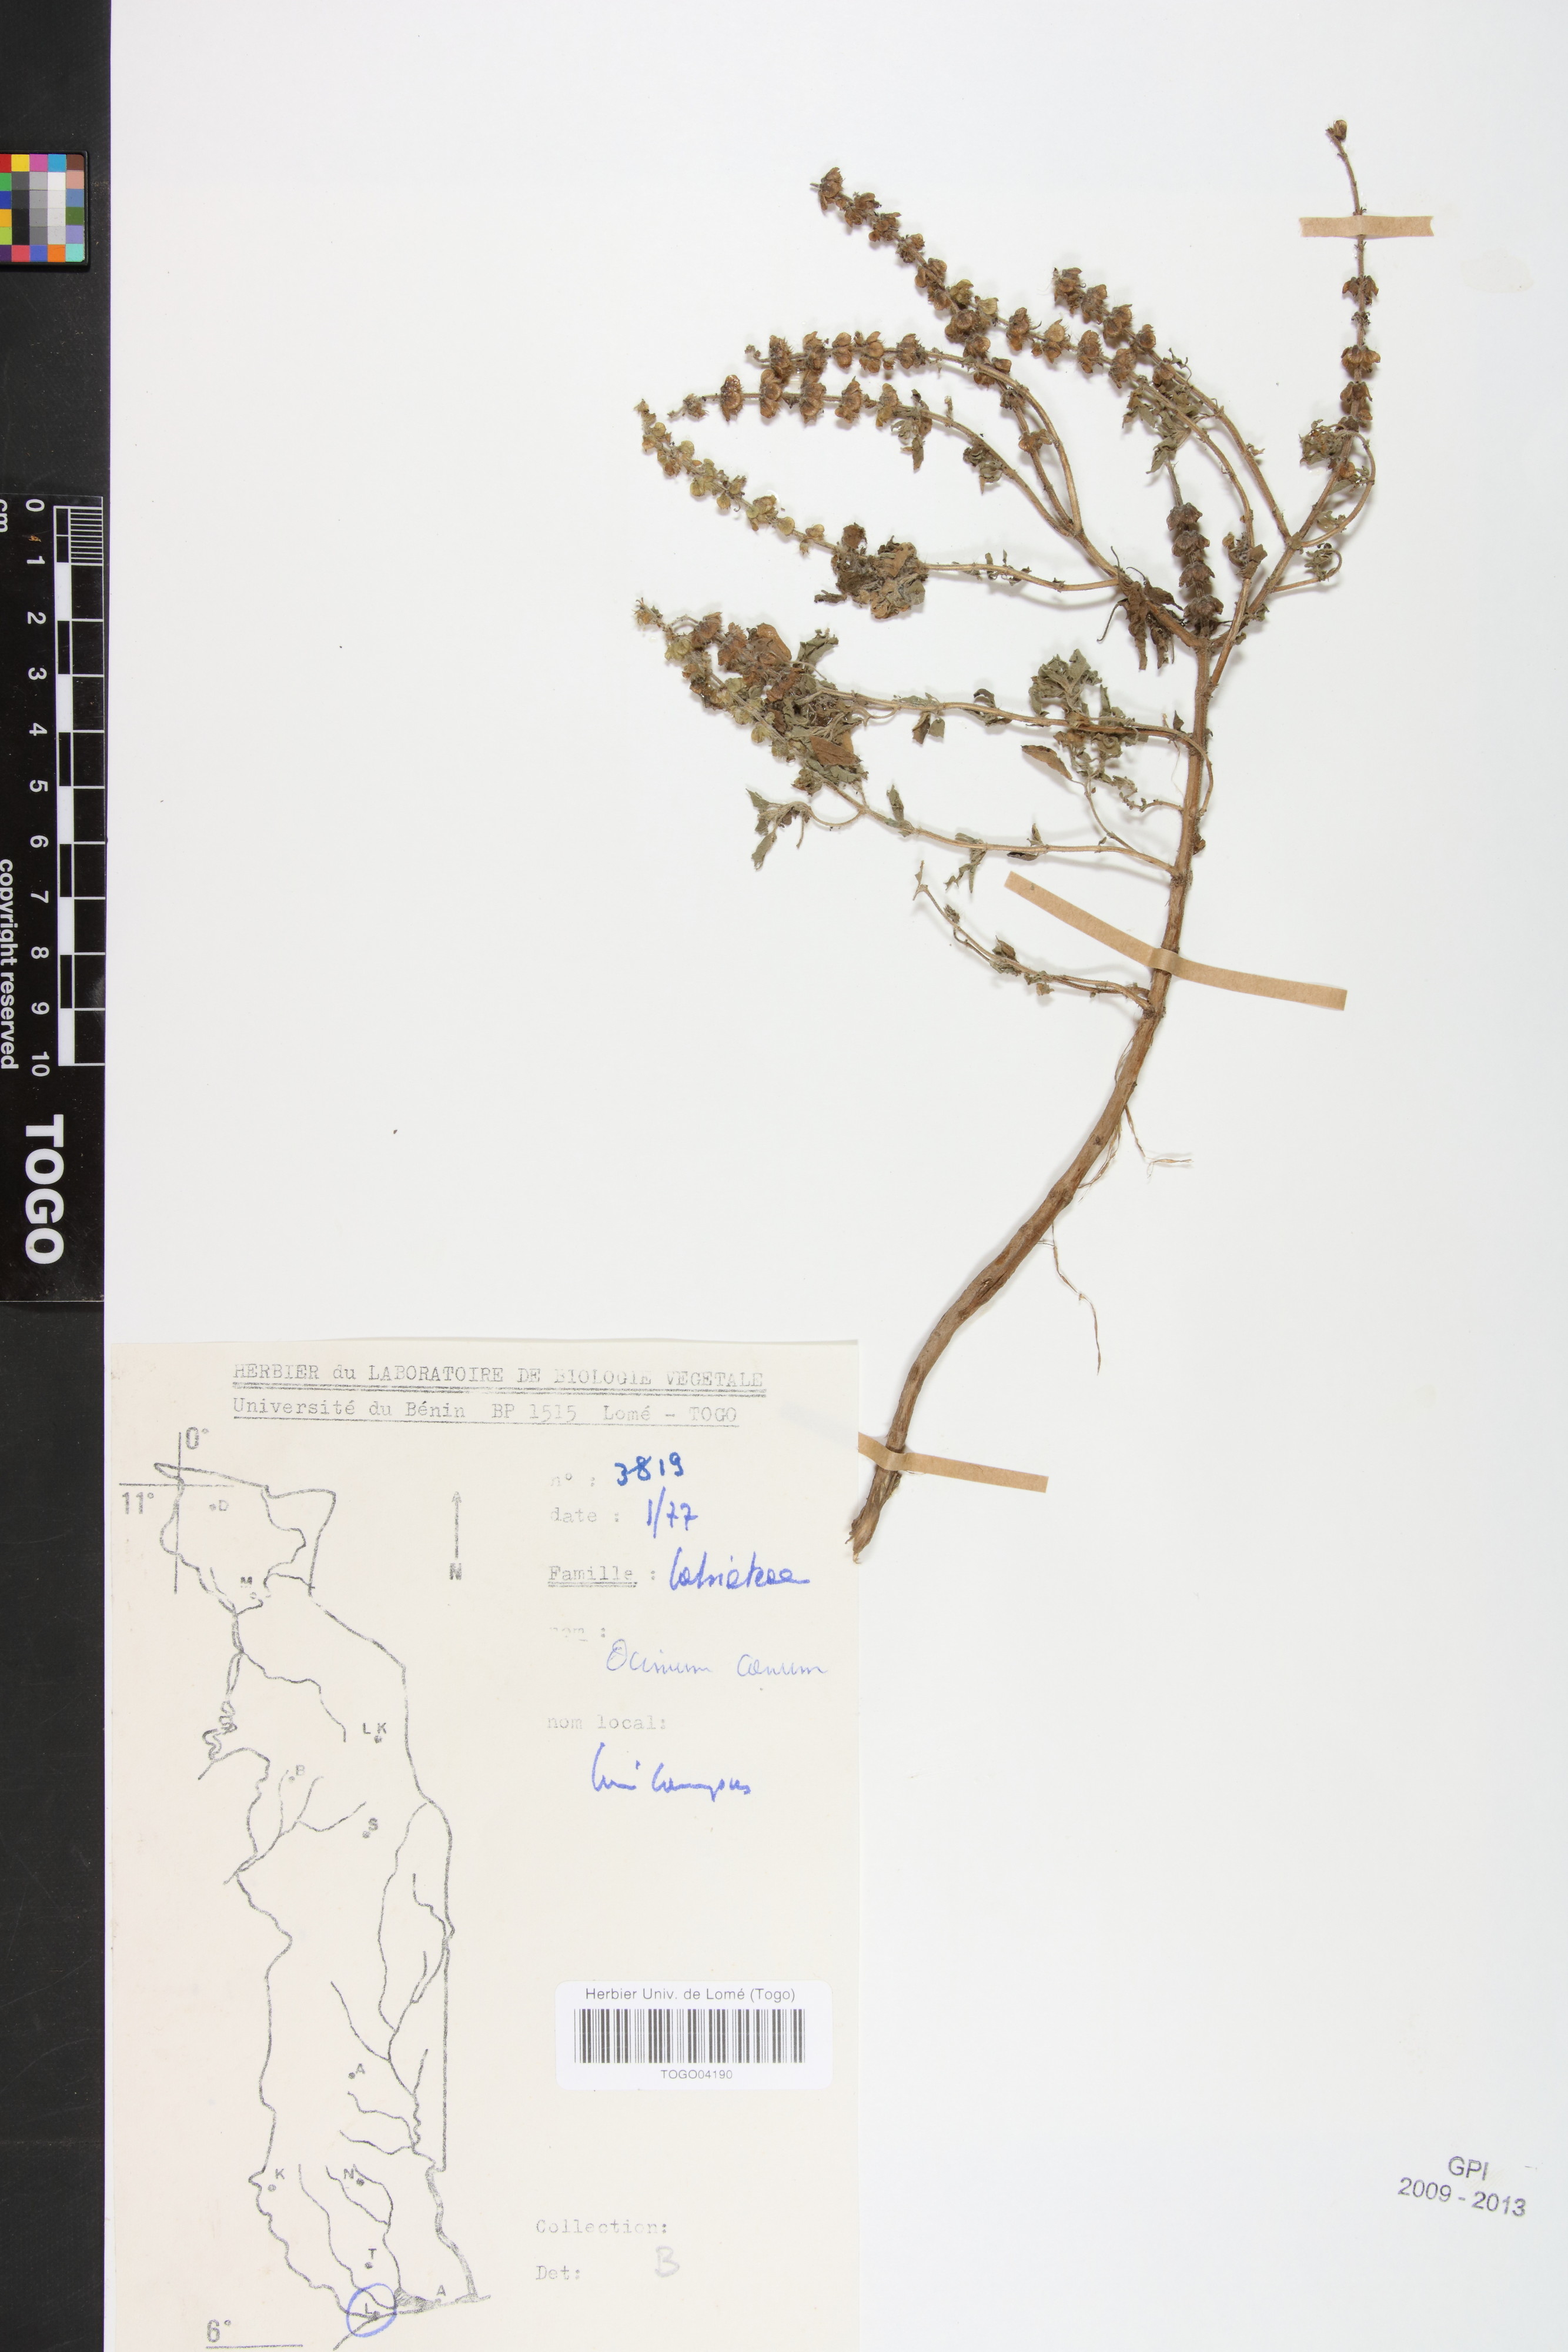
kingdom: Plantae
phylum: Tracheophyta
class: Magnoliopsida
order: Lamiales
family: Lamiaceae
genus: Ocimum
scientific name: Ocimum americanum
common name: American basil
